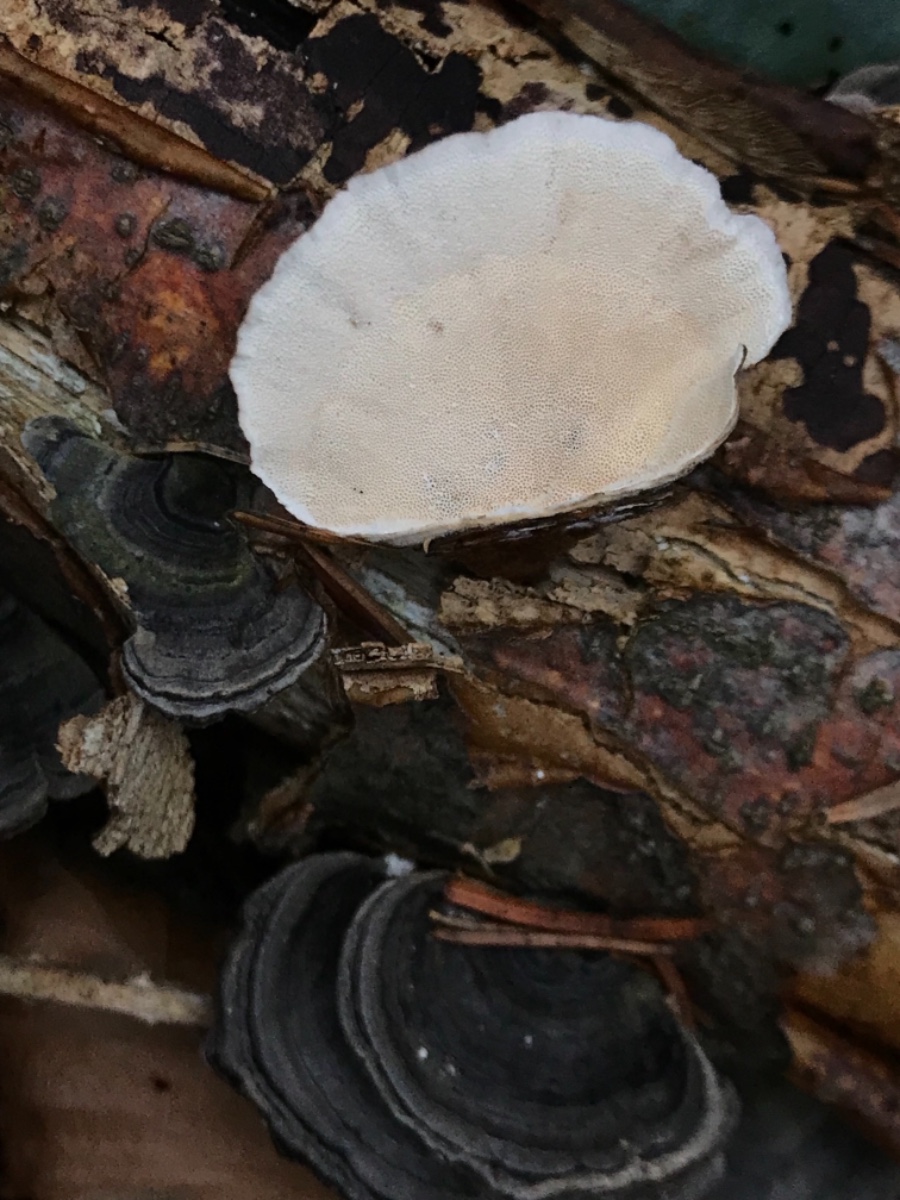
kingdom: Fungi
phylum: Basidiomycota
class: Agaricomycetes
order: Polyporales
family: Polyporaceae
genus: Trametes
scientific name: Trametes versicolor
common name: broget læderporesvamp
